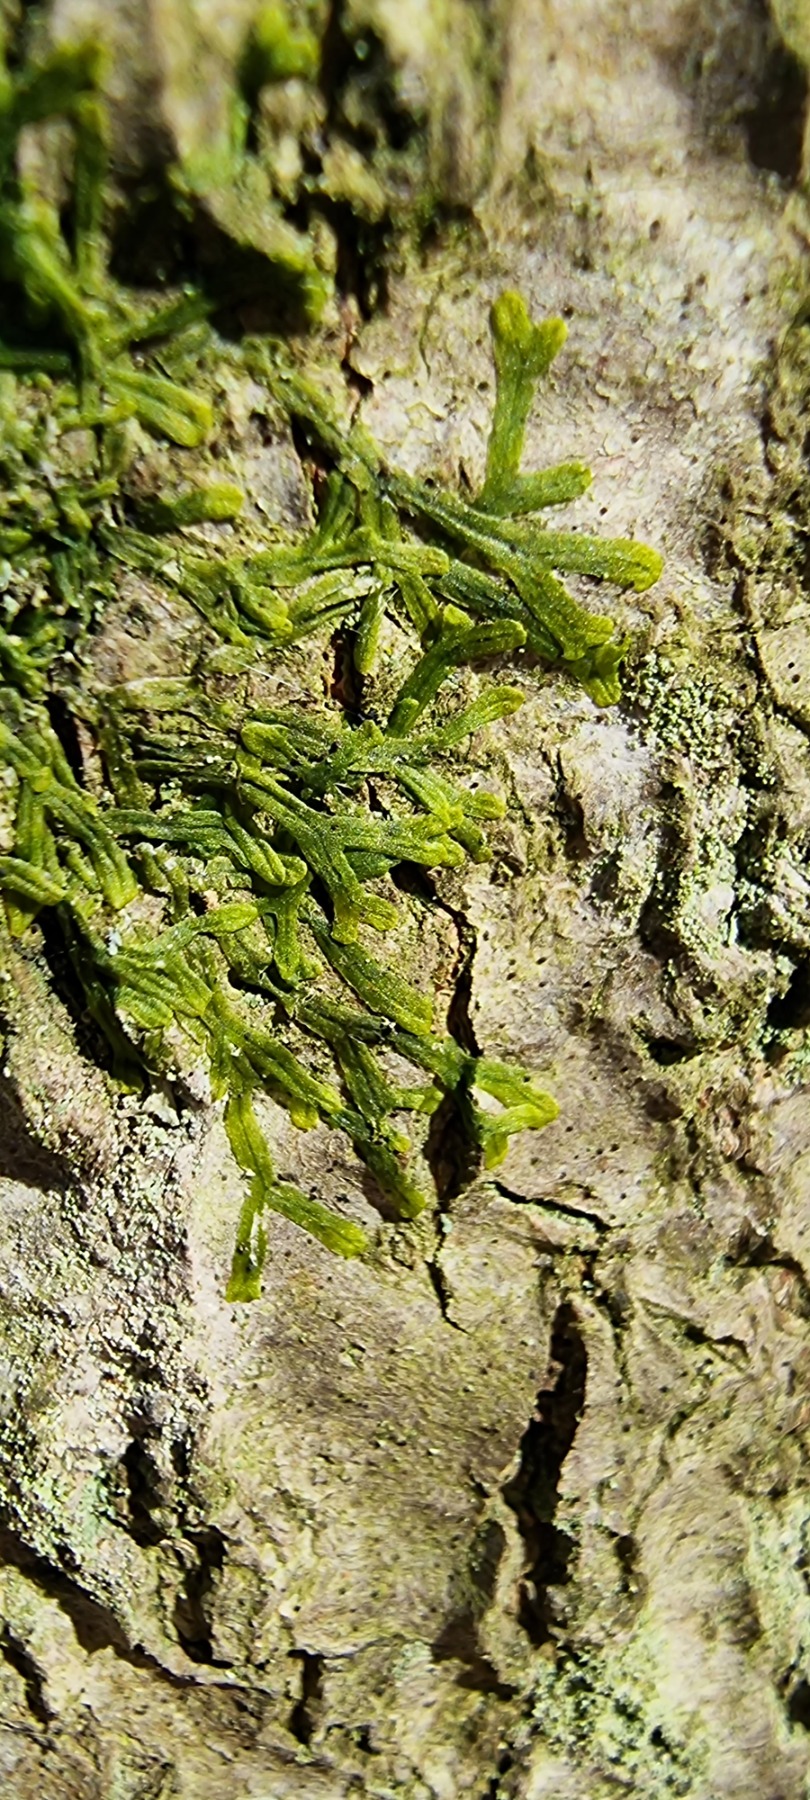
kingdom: Plantae
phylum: Marchantiophyta
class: Jungermanniopsida
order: Metzgeriales
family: Metzgeriaceae
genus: Metzgeria
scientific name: Metzgeria furcata
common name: Almindelig gaffelløv
